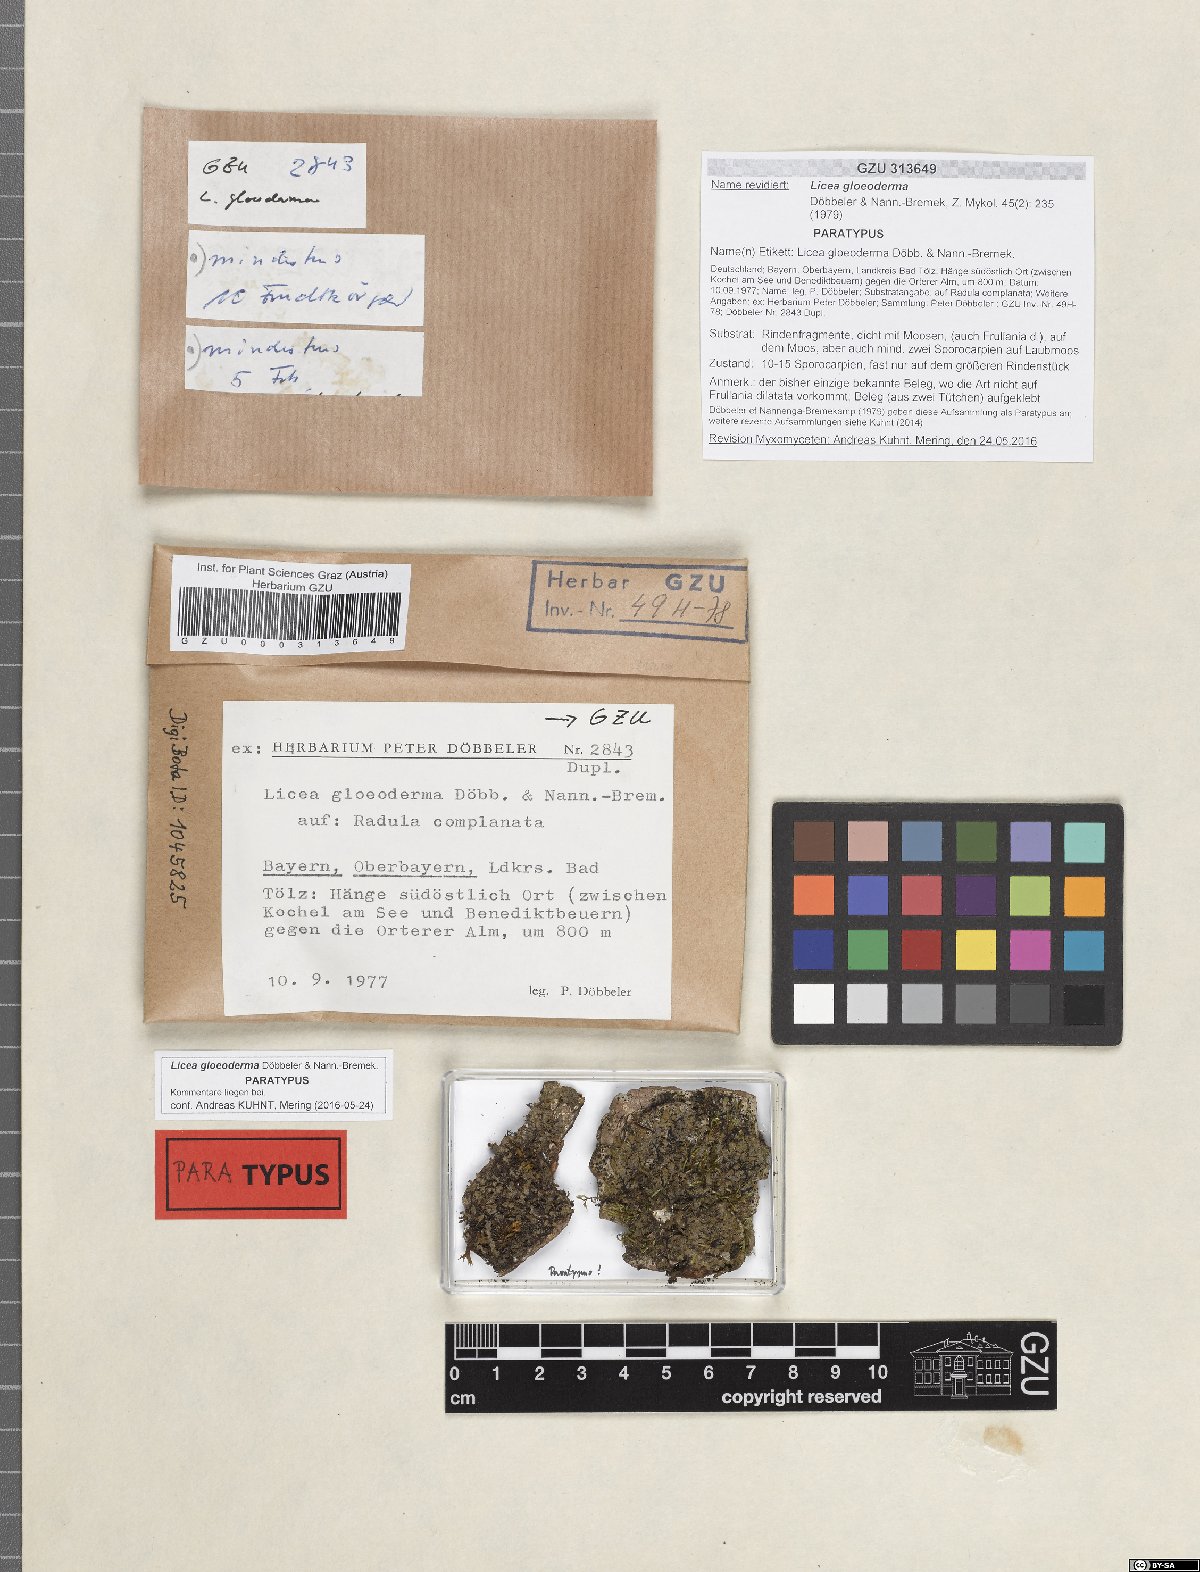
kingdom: Protozoa
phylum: Mycetozoa
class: Myxomycetes
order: Cribrariales
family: Liceaceae
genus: Licea
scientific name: Licea gloeoderma
